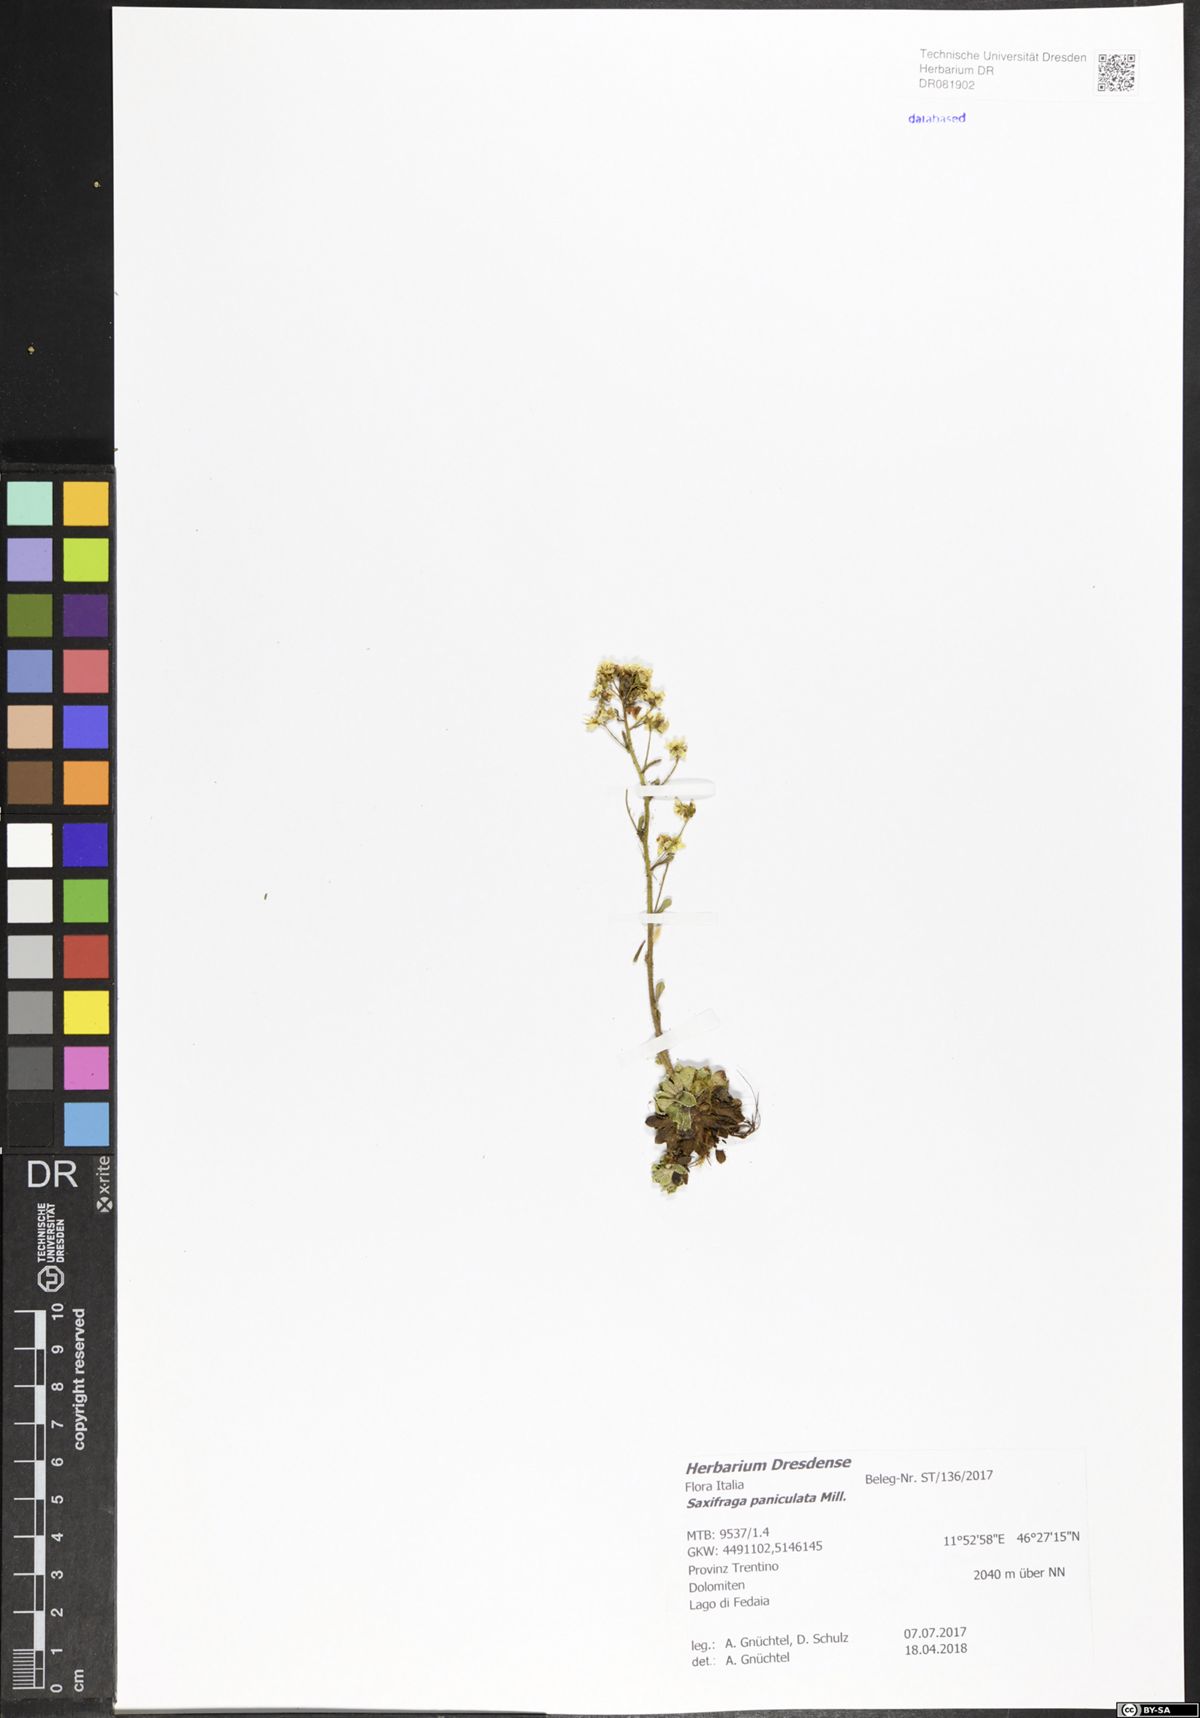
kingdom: Plantae
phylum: Tracheophyta
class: Magnoliopsida
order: Saxifragales
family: Saxifragaceae
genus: Saxifraga
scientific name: Saxifraga paniculata
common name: Livelong saxifrage
